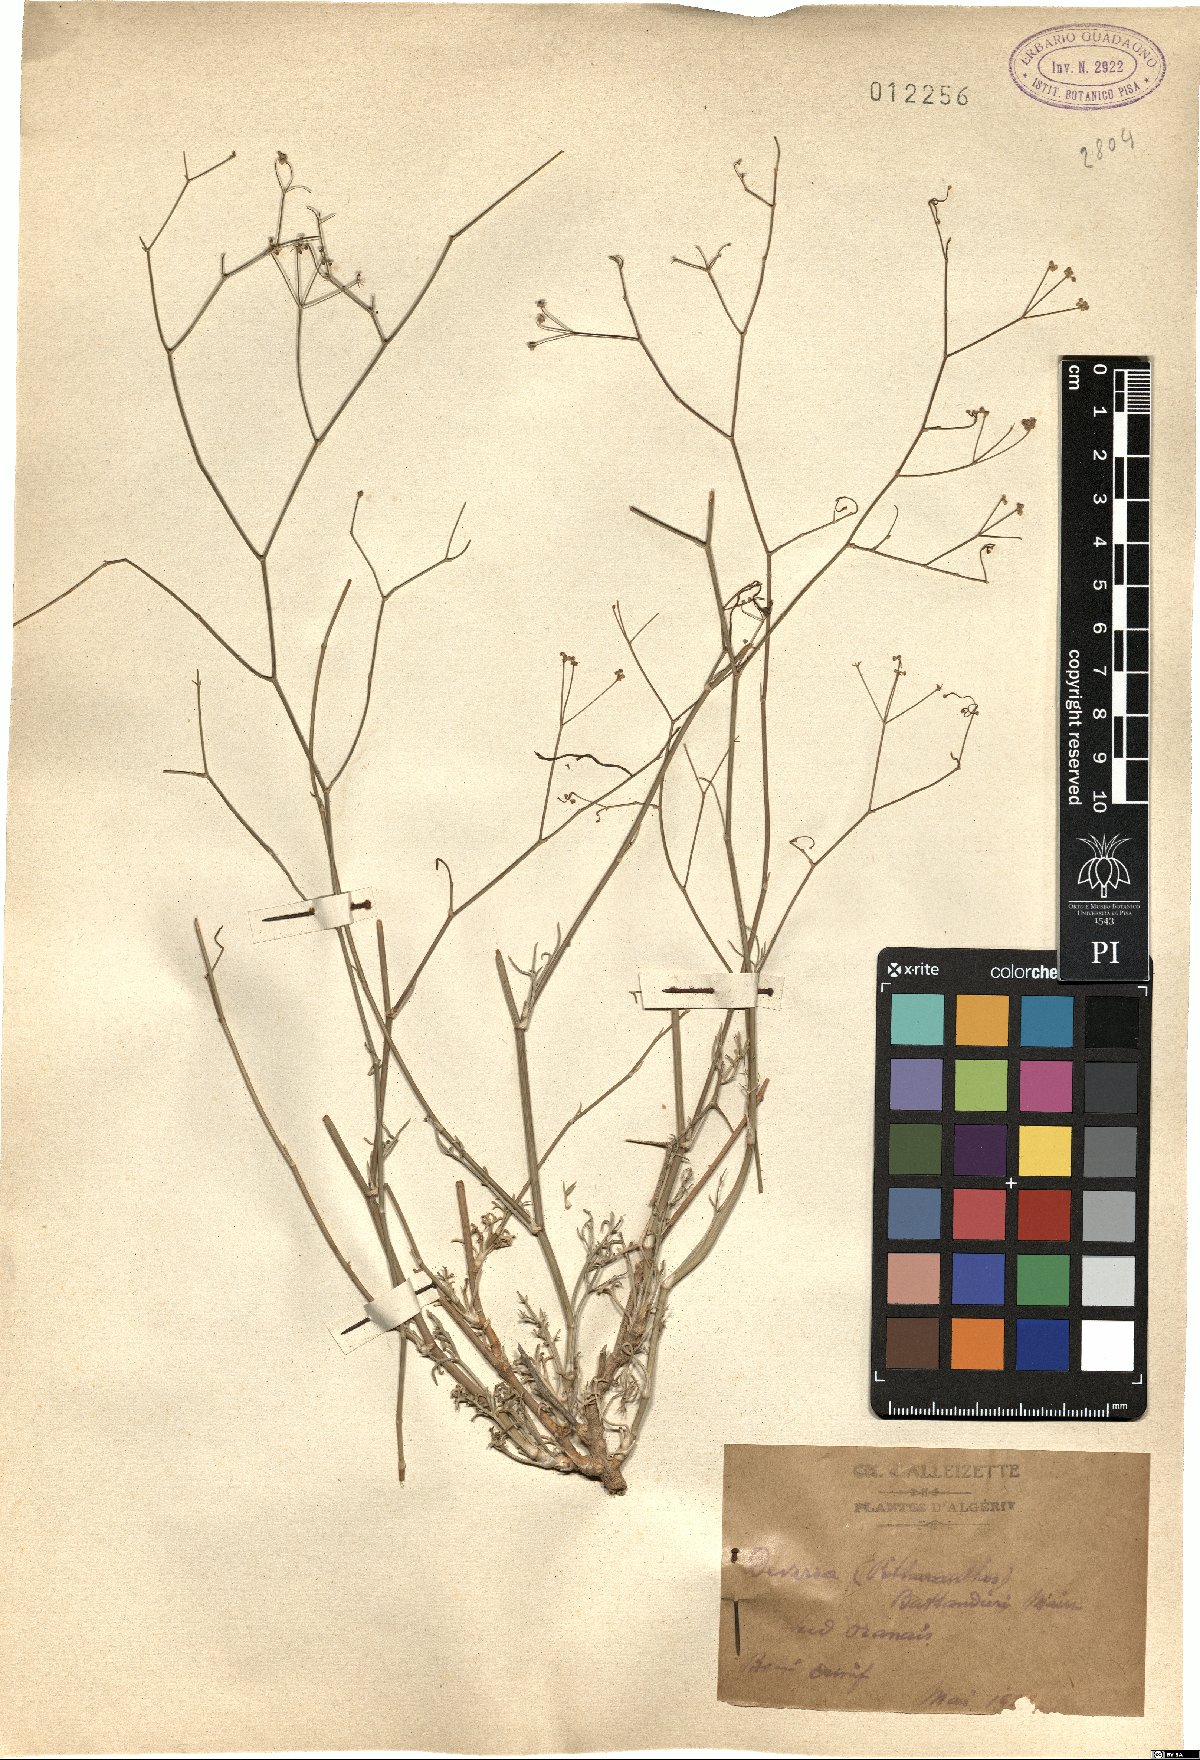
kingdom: Plantae
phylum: Tracheophyta
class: Magnoliopsida
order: Apiales
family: Apiaceae
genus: Deverra
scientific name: Deverra battandieri
